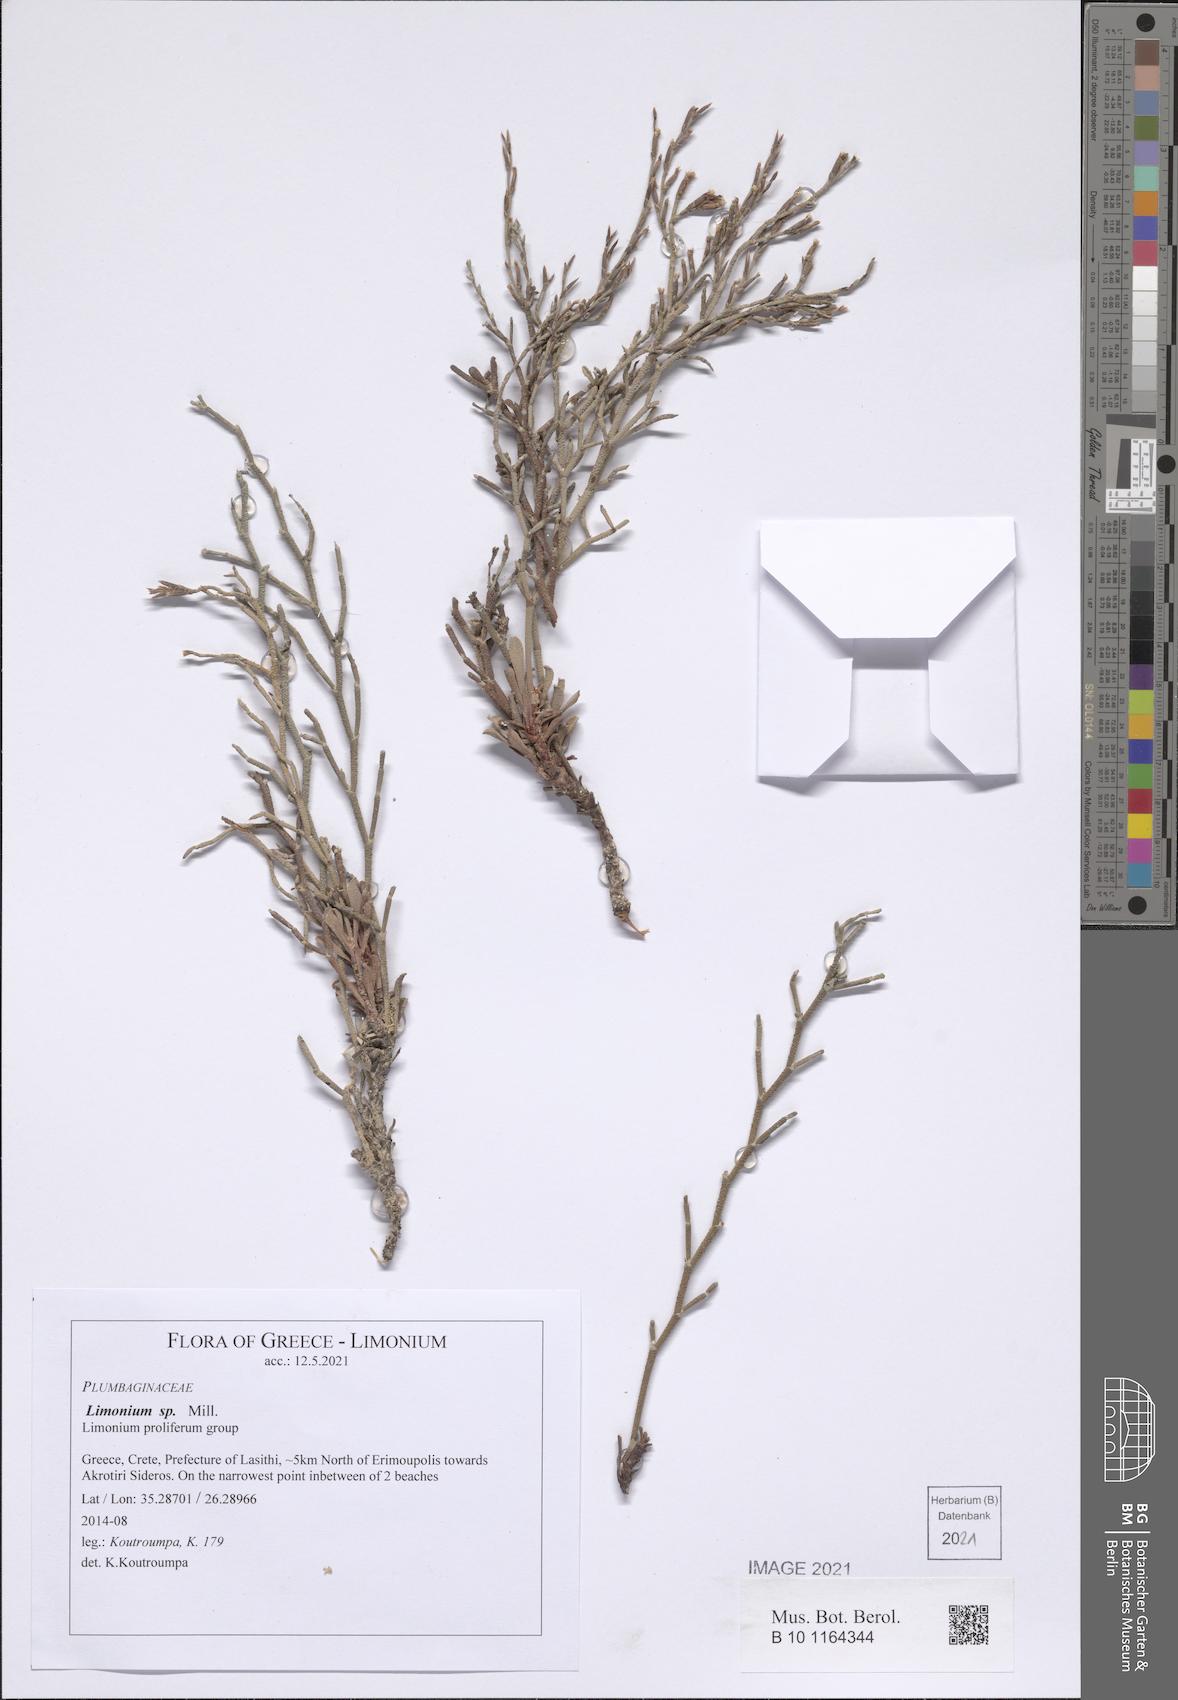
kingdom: Plantae
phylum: Tracheophyta
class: Magnoliopsida
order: Caryophyllales
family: Plumbaginaceae
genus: Limonium
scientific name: Limonium
